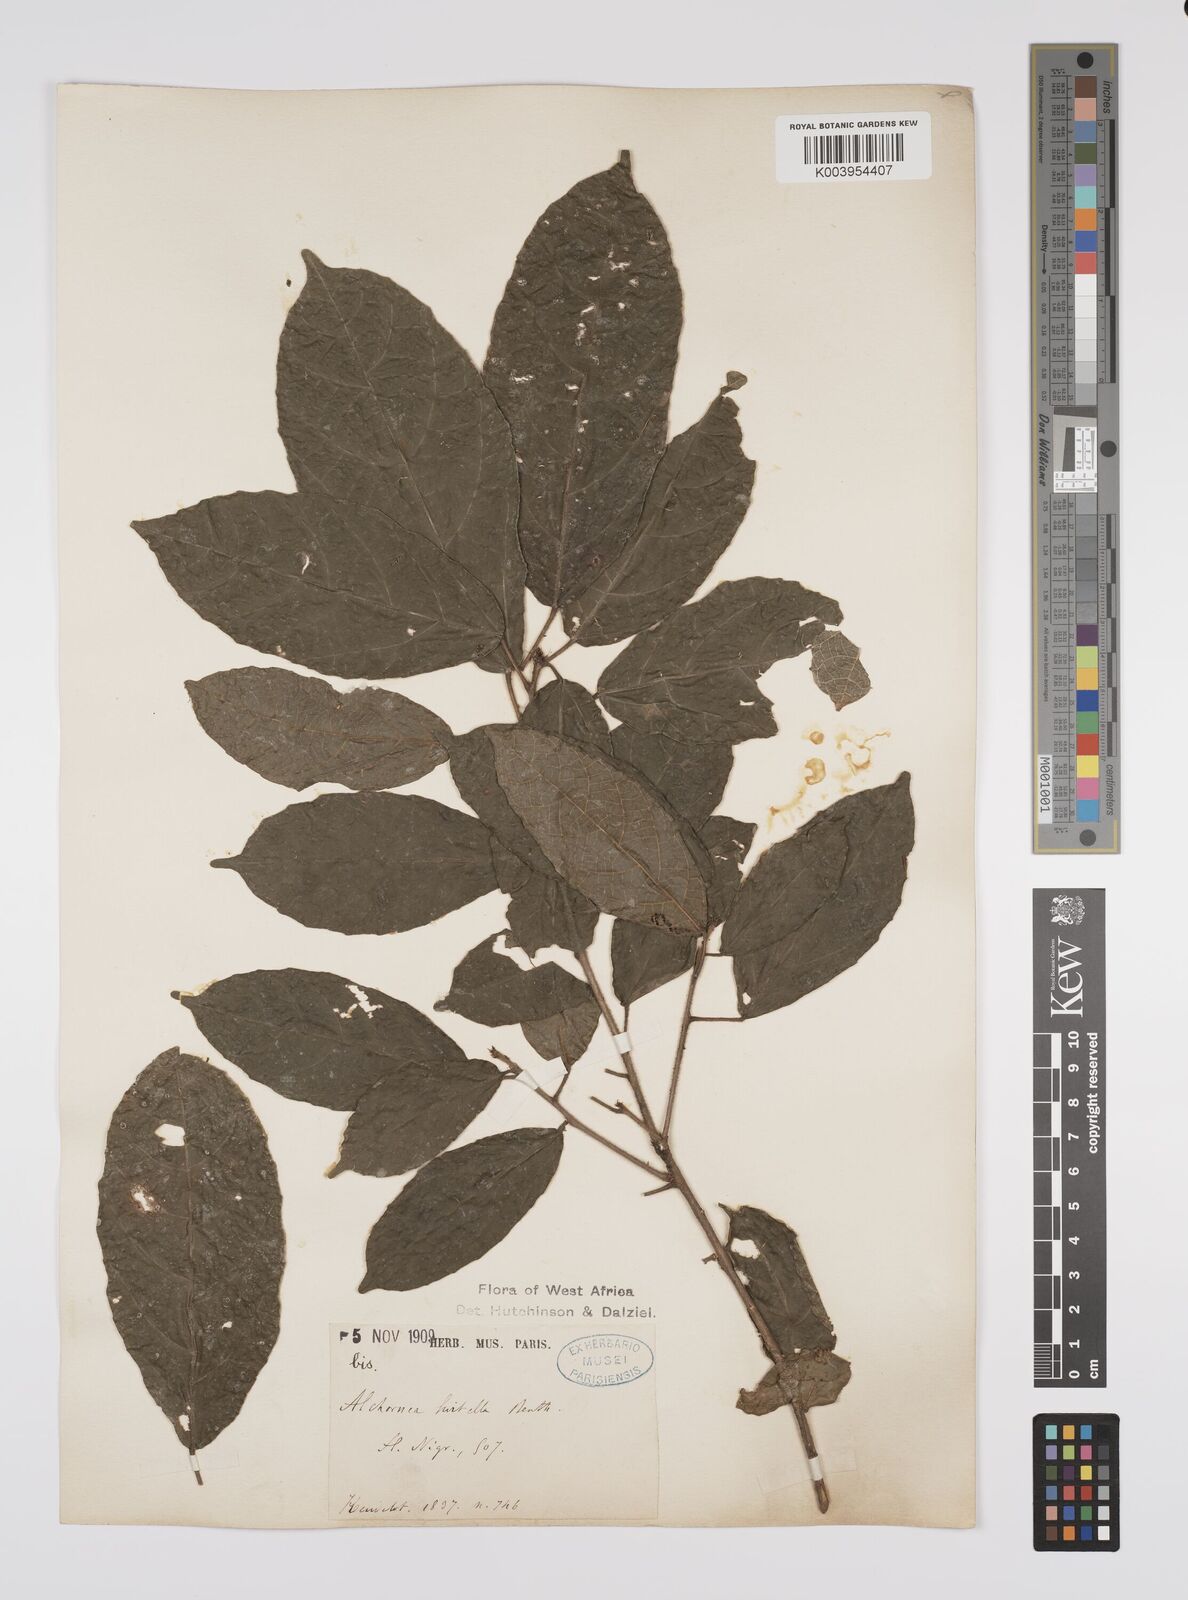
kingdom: Plantae
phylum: Tracheophyta
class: Magnoliopsida
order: Malpighiales
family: Euphorbiaceae
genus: Alchornea
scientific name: Alchornea hirtella
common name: Forest bead-string
